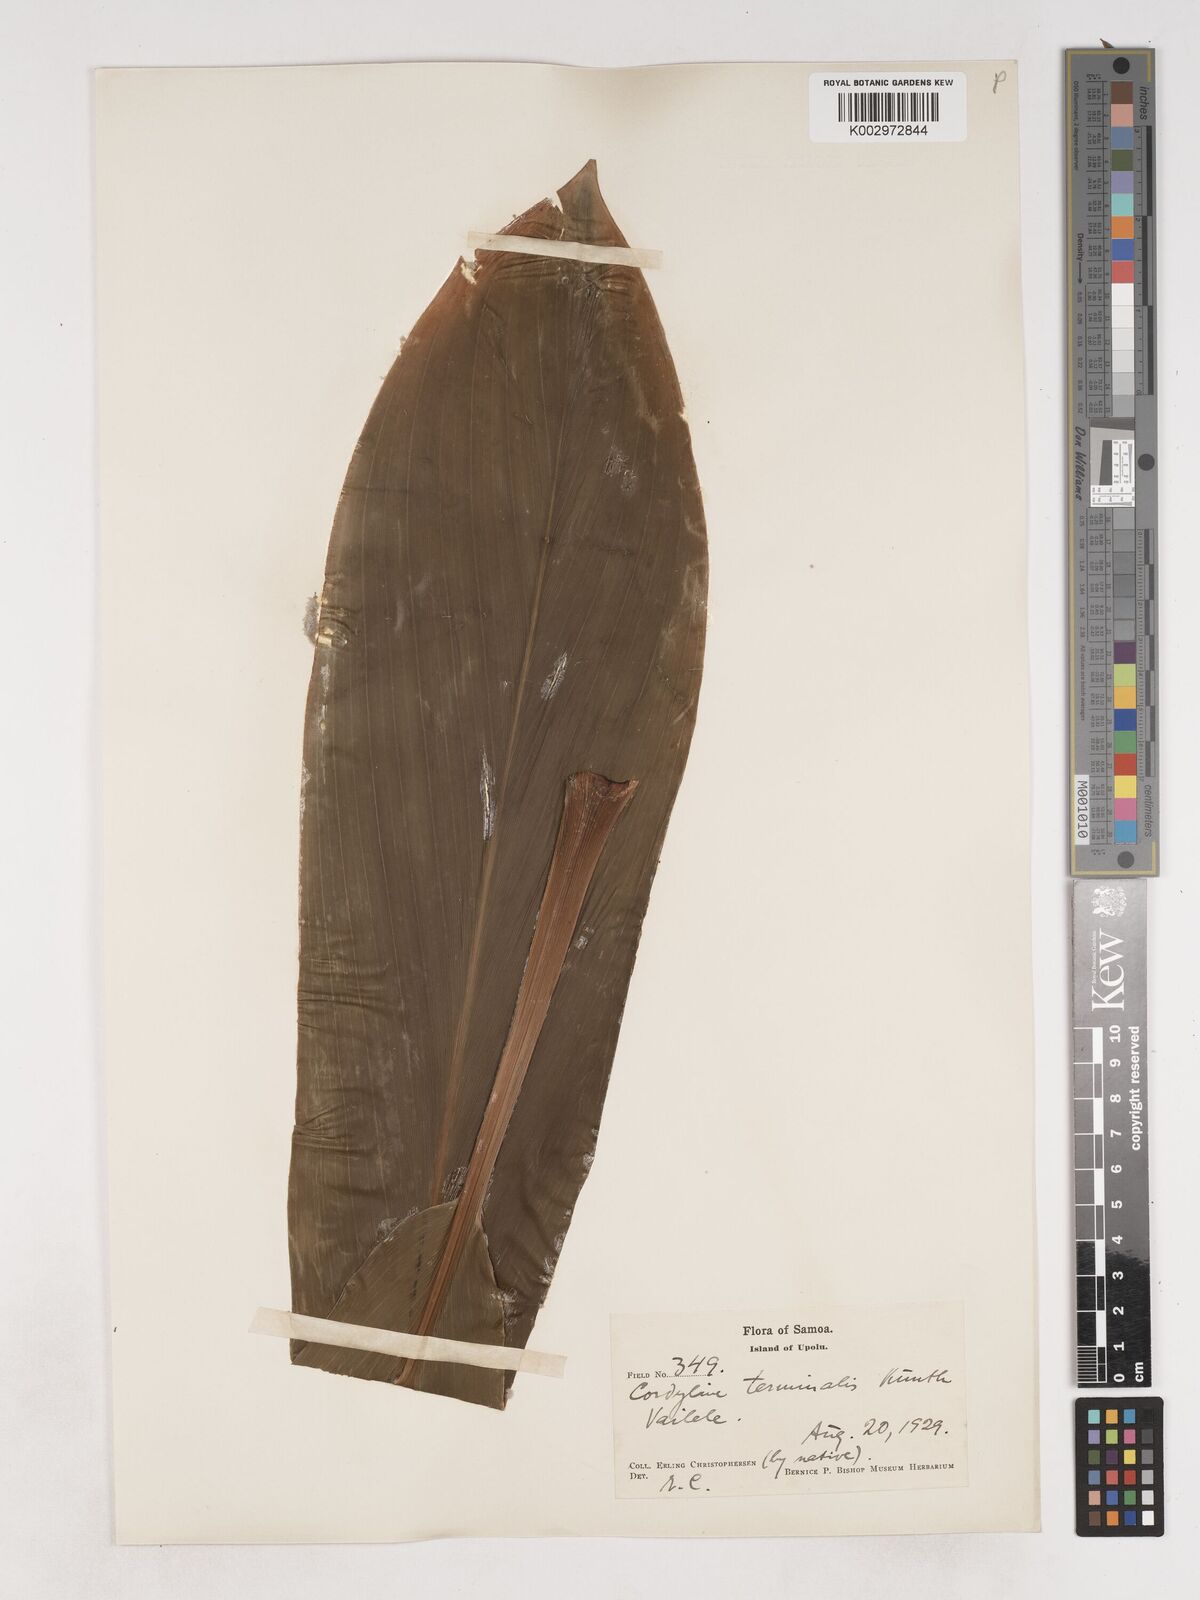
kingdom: Plantae
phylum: Tracheophyta
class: Liliopsida
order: Asparagales
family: Asparagaceae
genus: Cordyline
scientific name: Cordyline fruticosa
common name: Good-luck-plant
